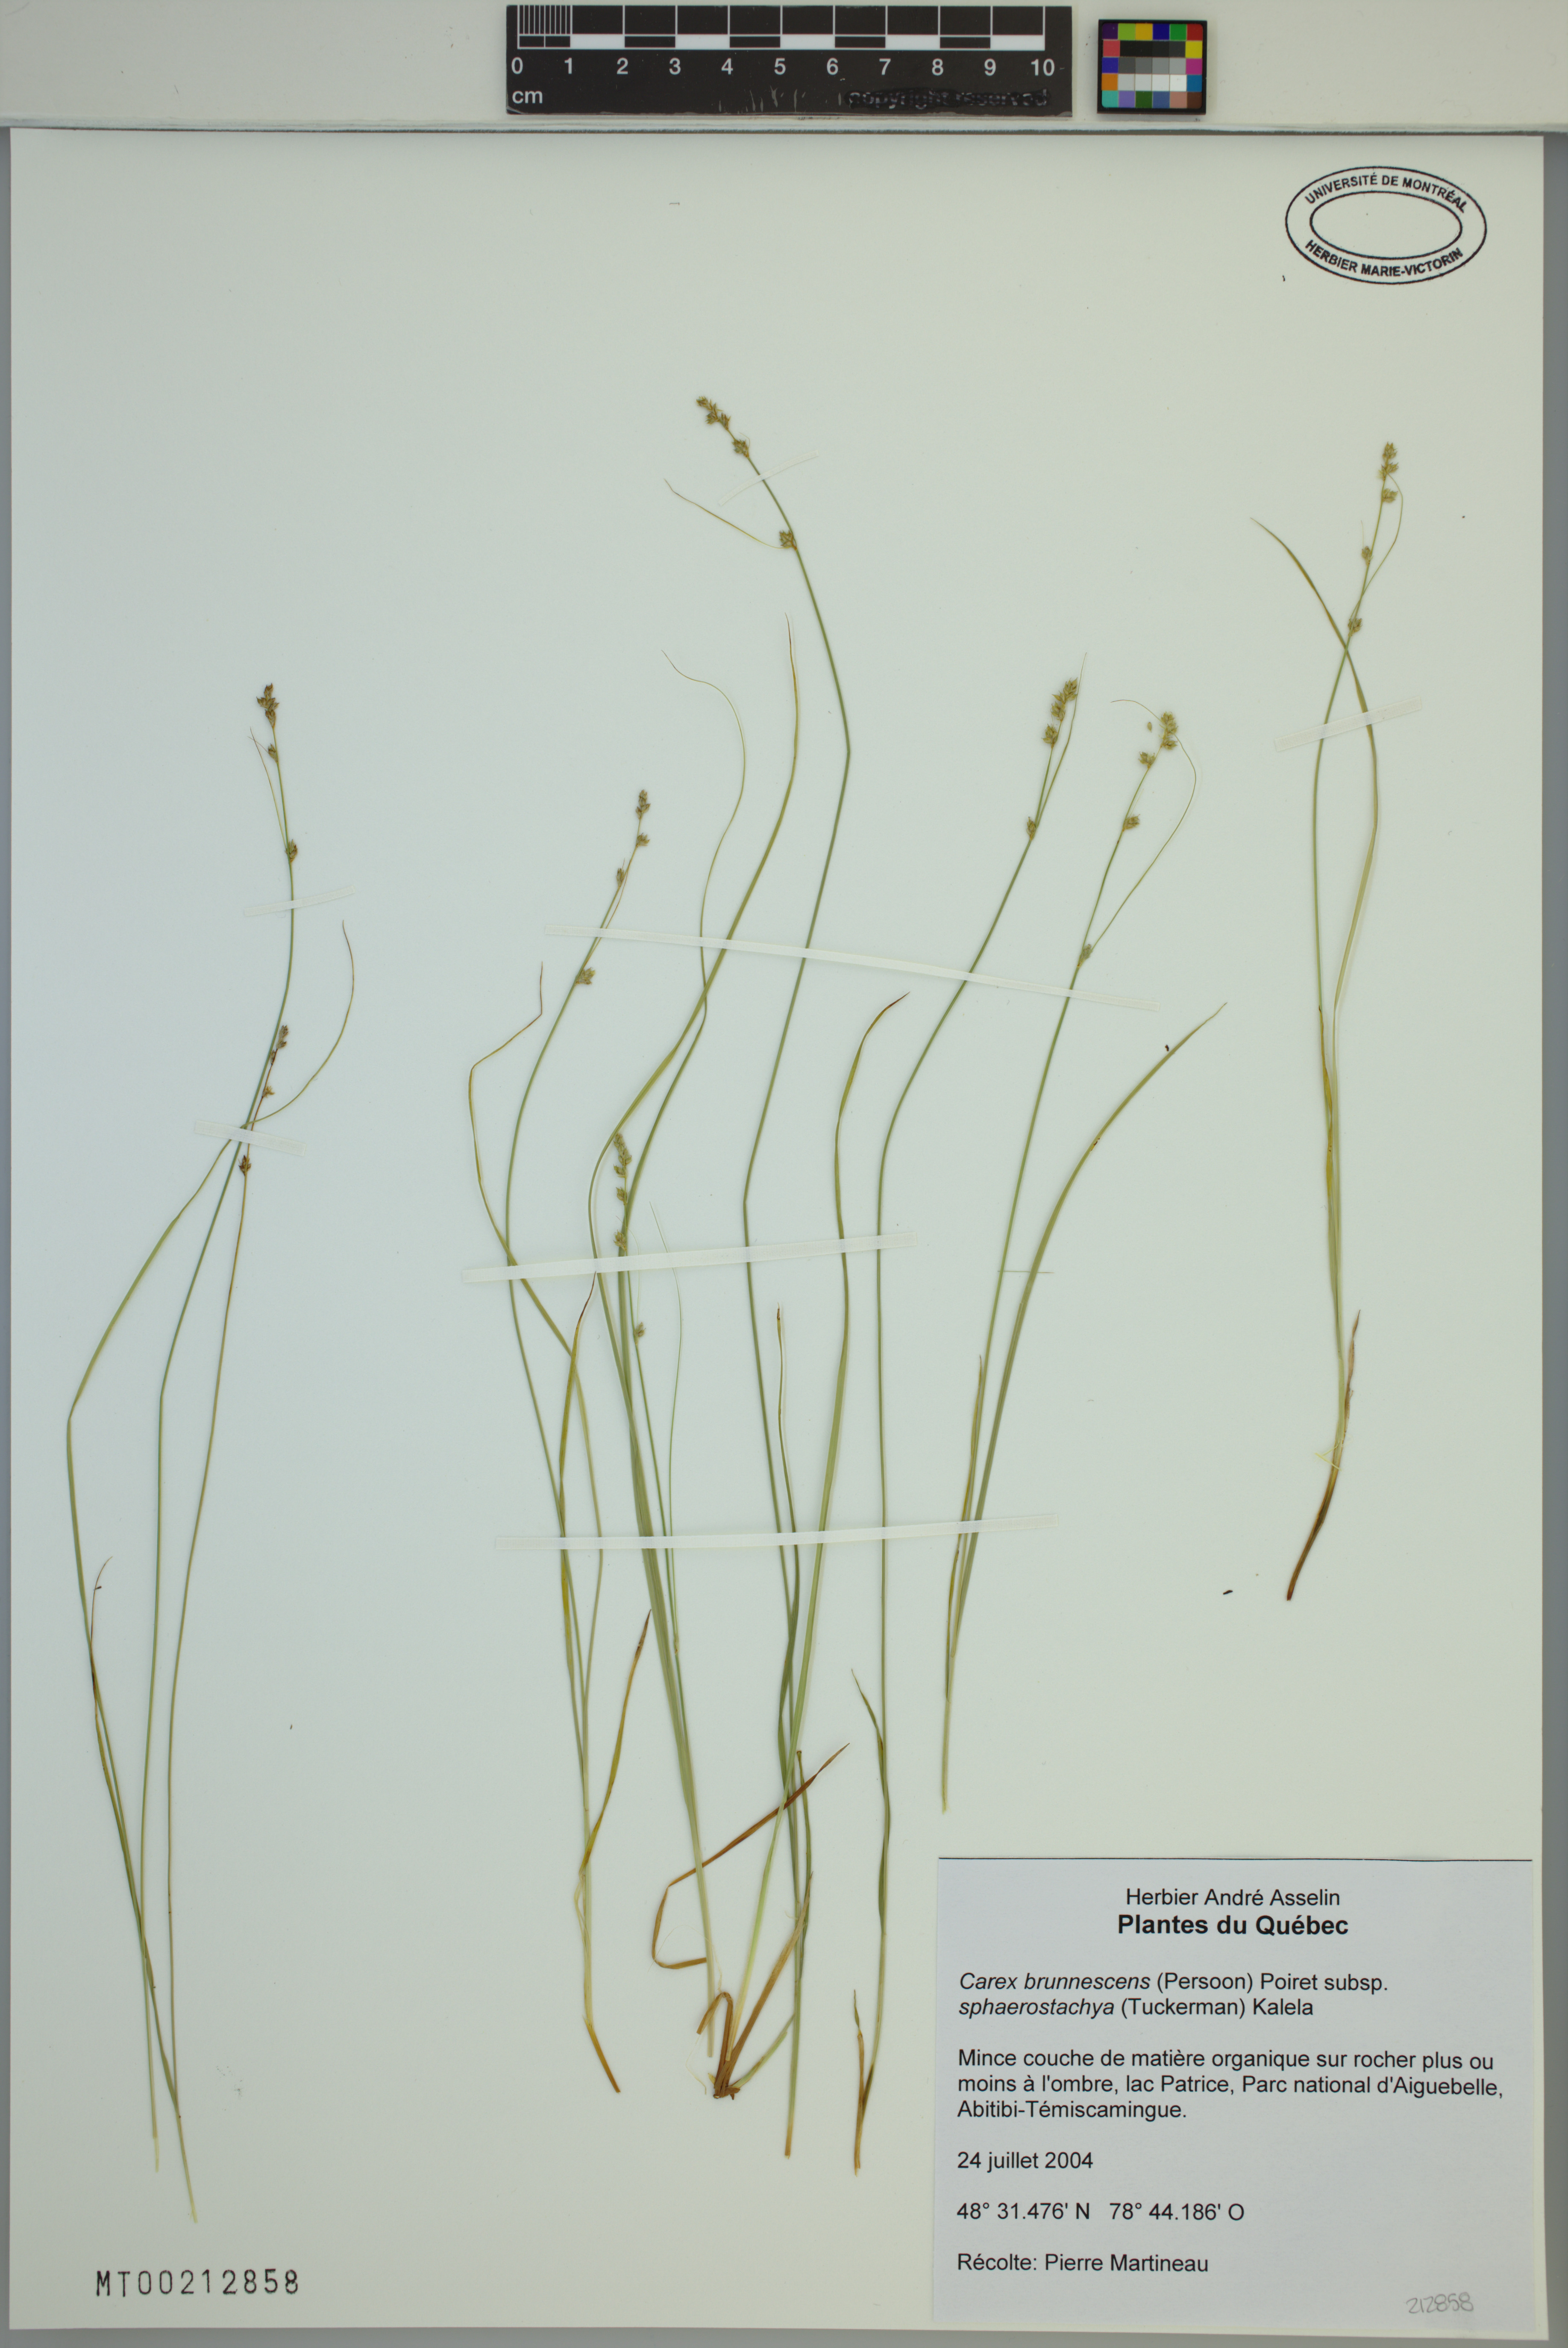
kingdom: Plantae
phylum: Tracheophyta
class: Liliopsida
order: Poales
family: Cyperaceae
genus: Carex
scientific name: Carex brunnescens
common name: Brown sedge
